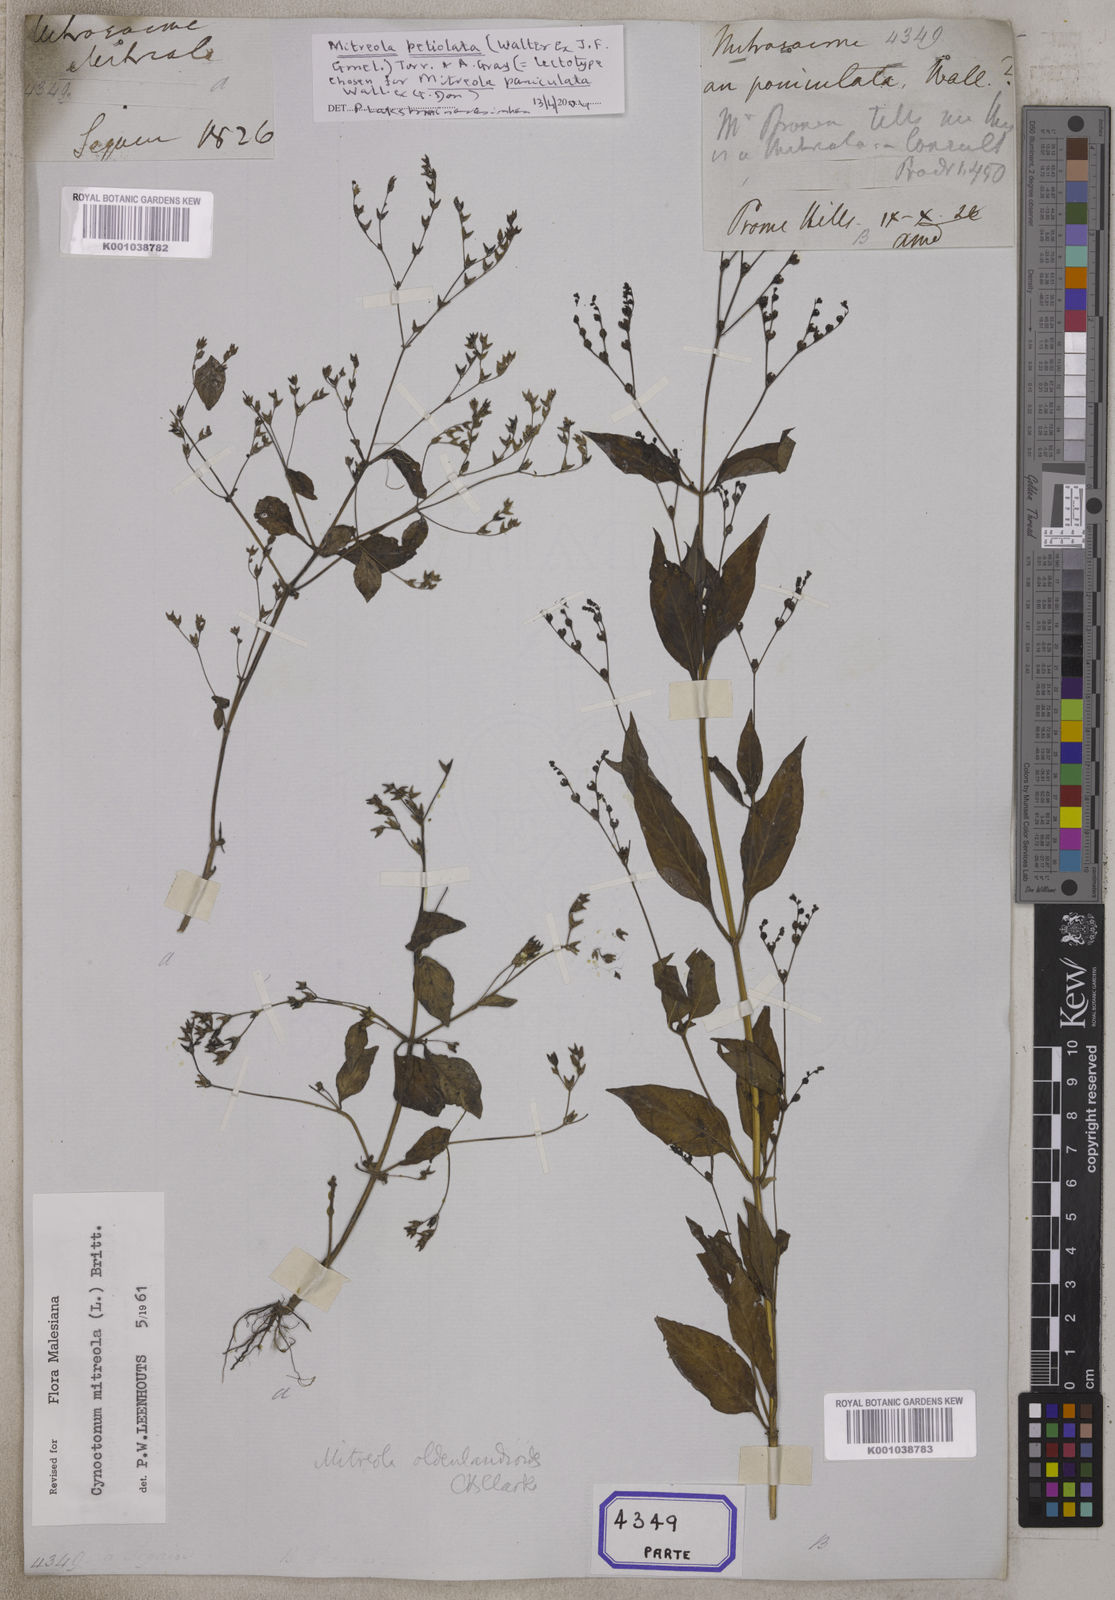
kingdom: Plantae
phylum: Tracheophyta
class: Magnoliopsida
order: Gentianales
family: Loganiaceae
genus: Mitreola
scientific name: Mitreola
